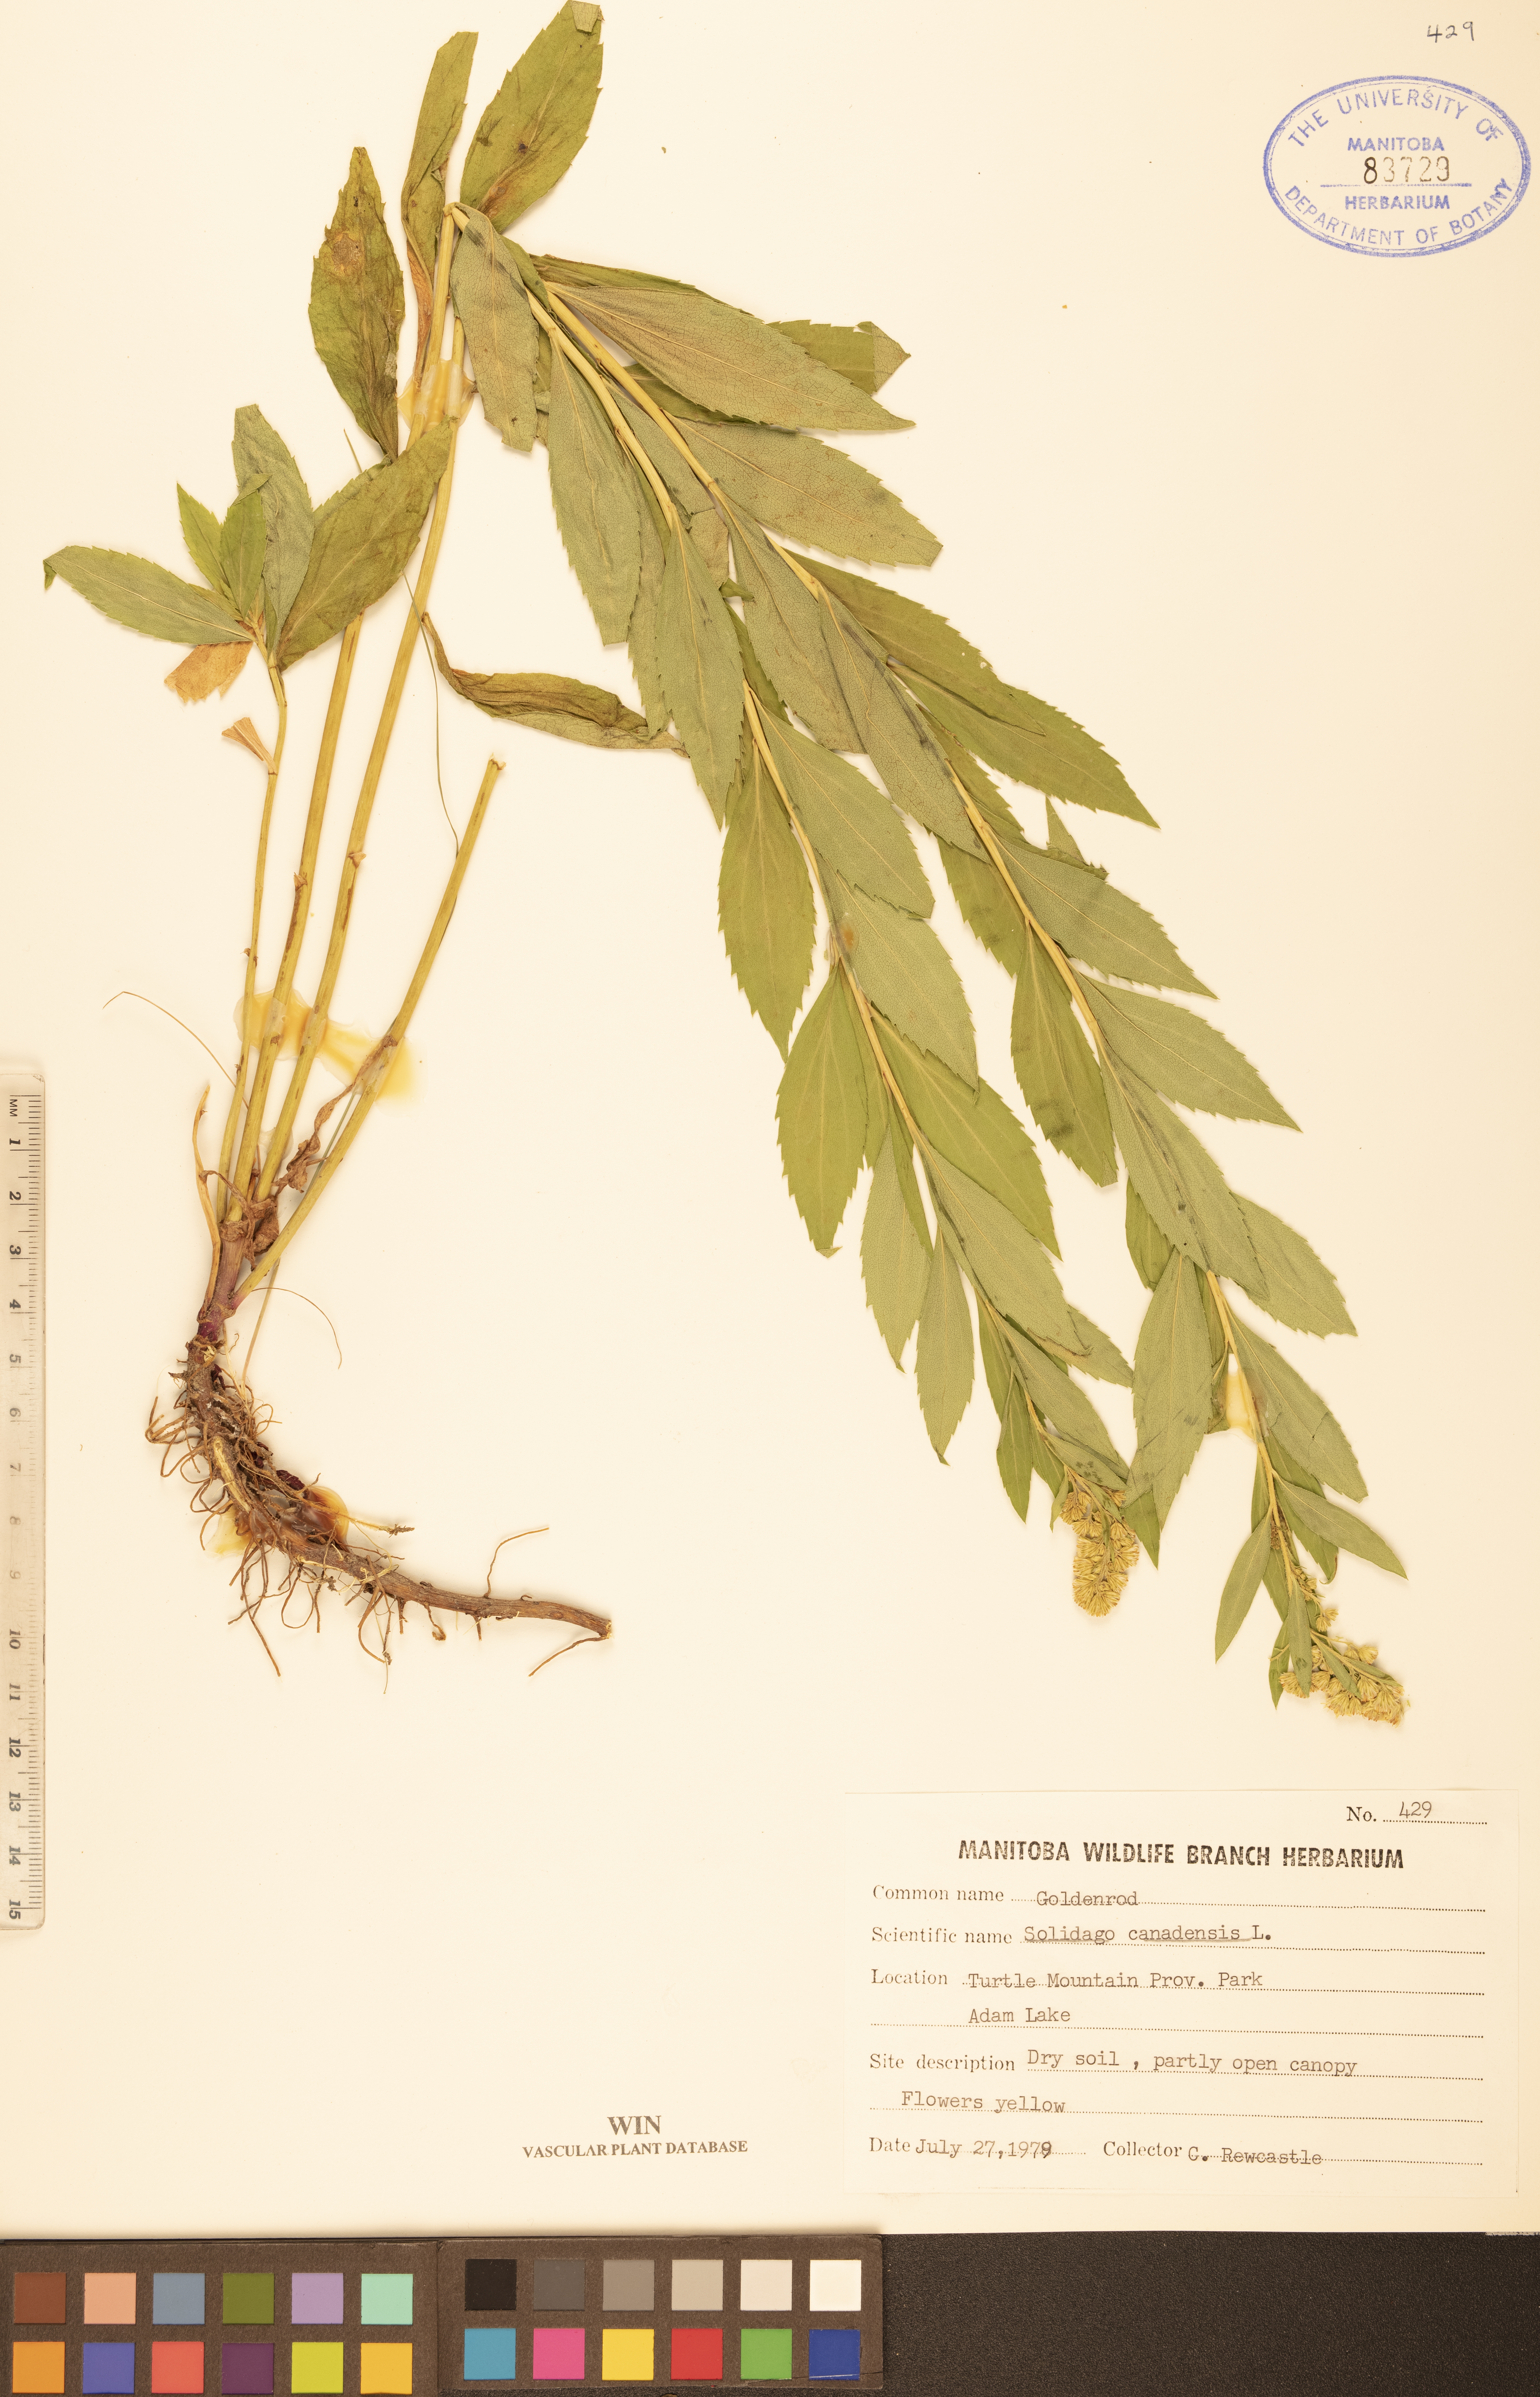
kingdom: Plantae
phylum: Tracheophyta
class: Magnoliopsida
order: Asterales
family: Asteraceae
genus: Solidago
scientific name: Solidago canadensis
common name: Canada goldenrod
